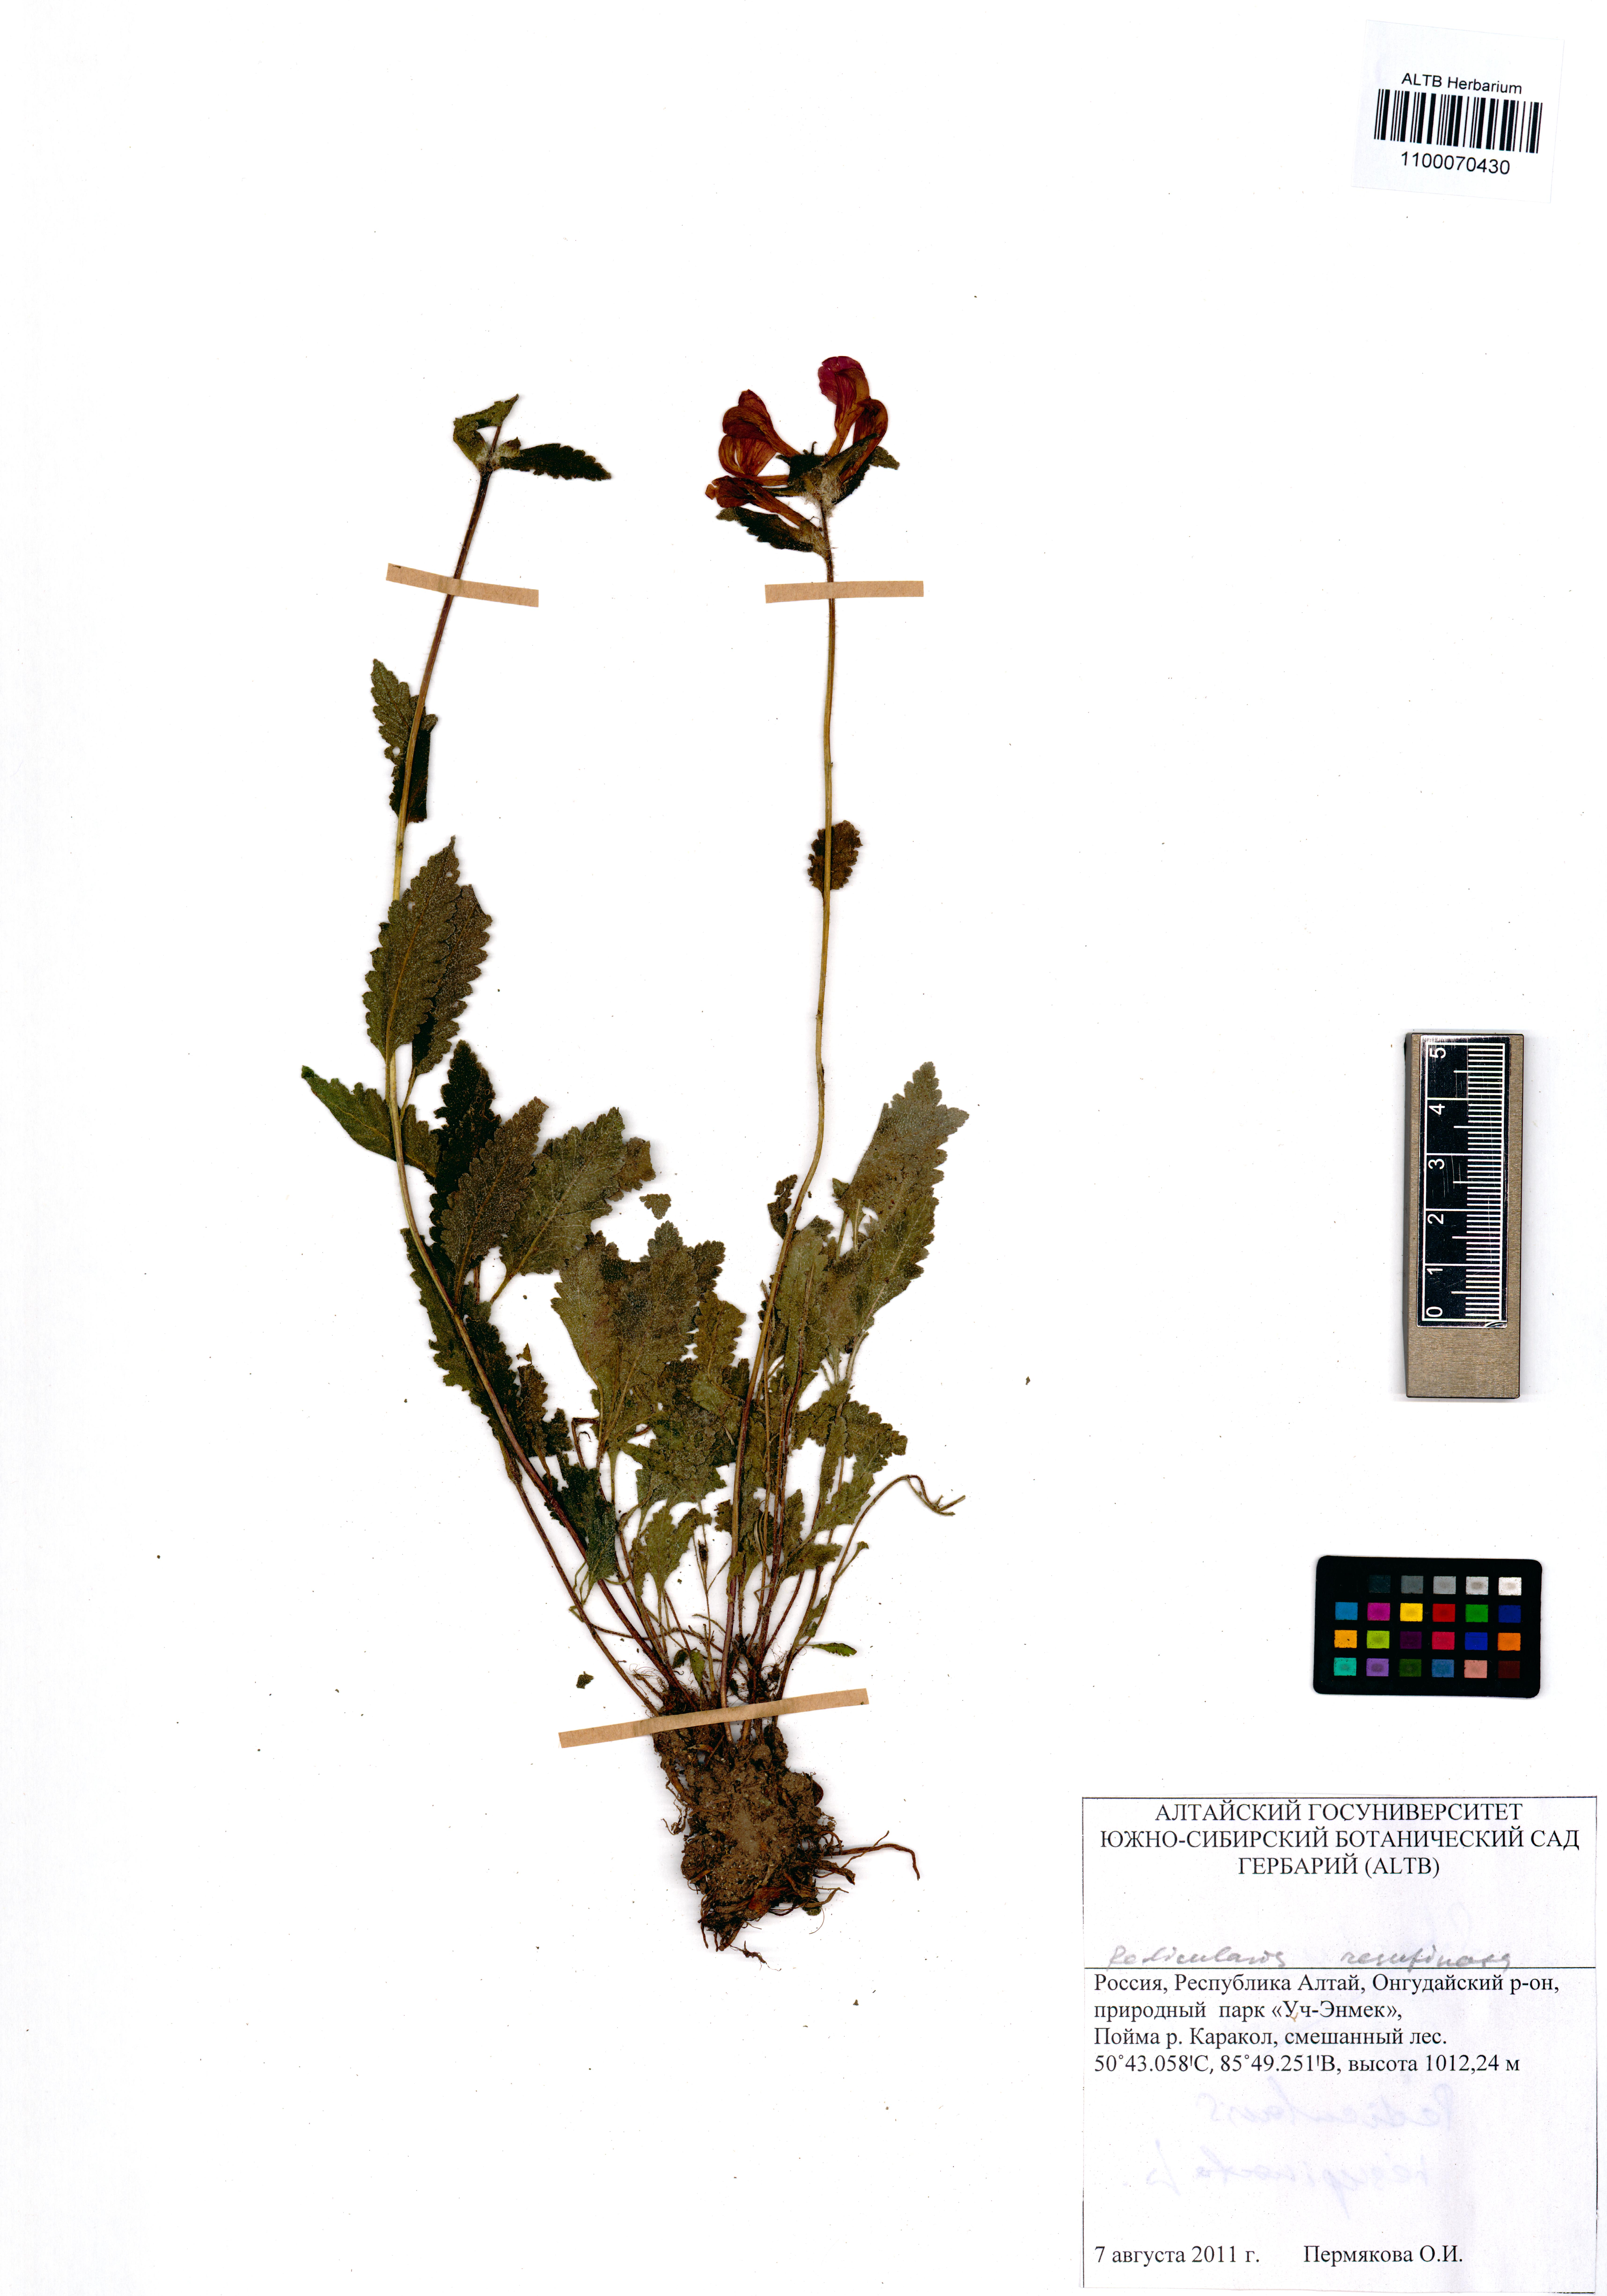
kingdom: Plantae
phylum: Tracheophyta
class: Magnoliopsida
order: Lamiales
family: Orobanchaceae
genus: Pedicularis
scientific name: Pedicularis resupinata
